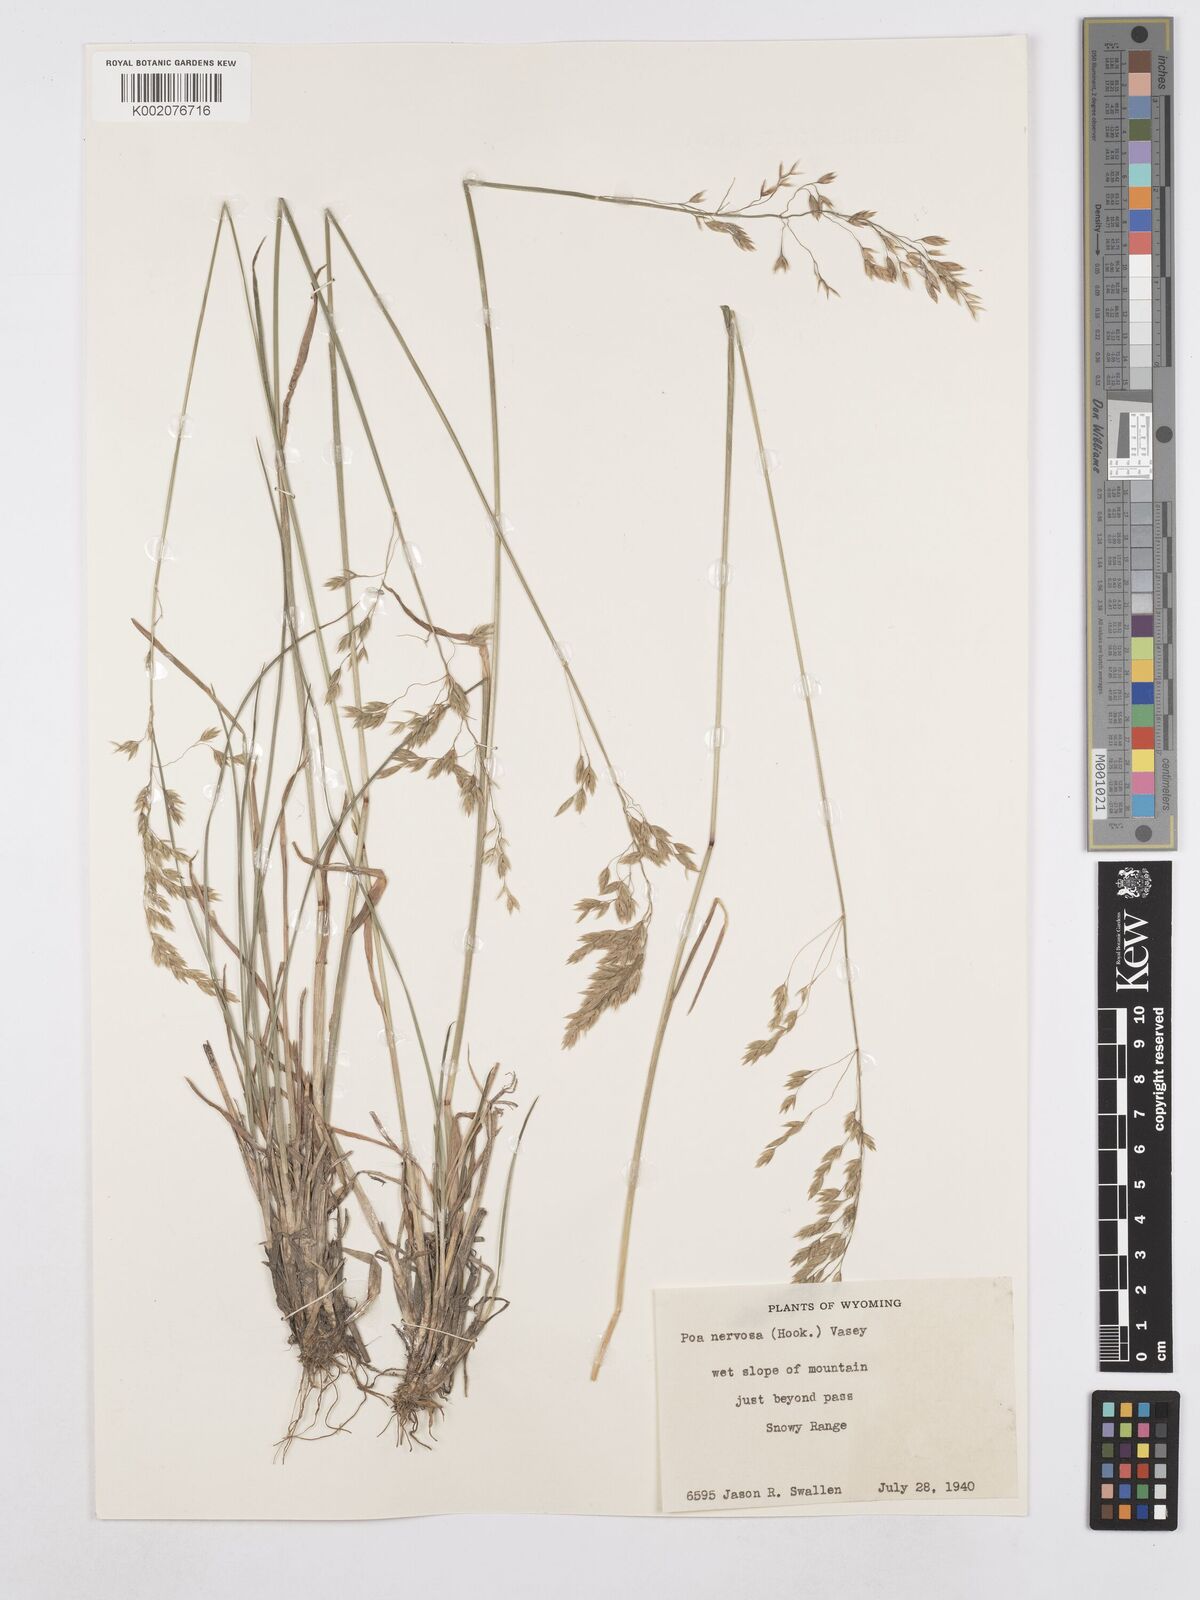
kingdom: Plantae
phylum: Tracheophyta
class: Liliopsida
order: Poales
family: Poaceae
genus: Poa
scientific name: Poa nervosa
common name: Hooker's bluegrass
